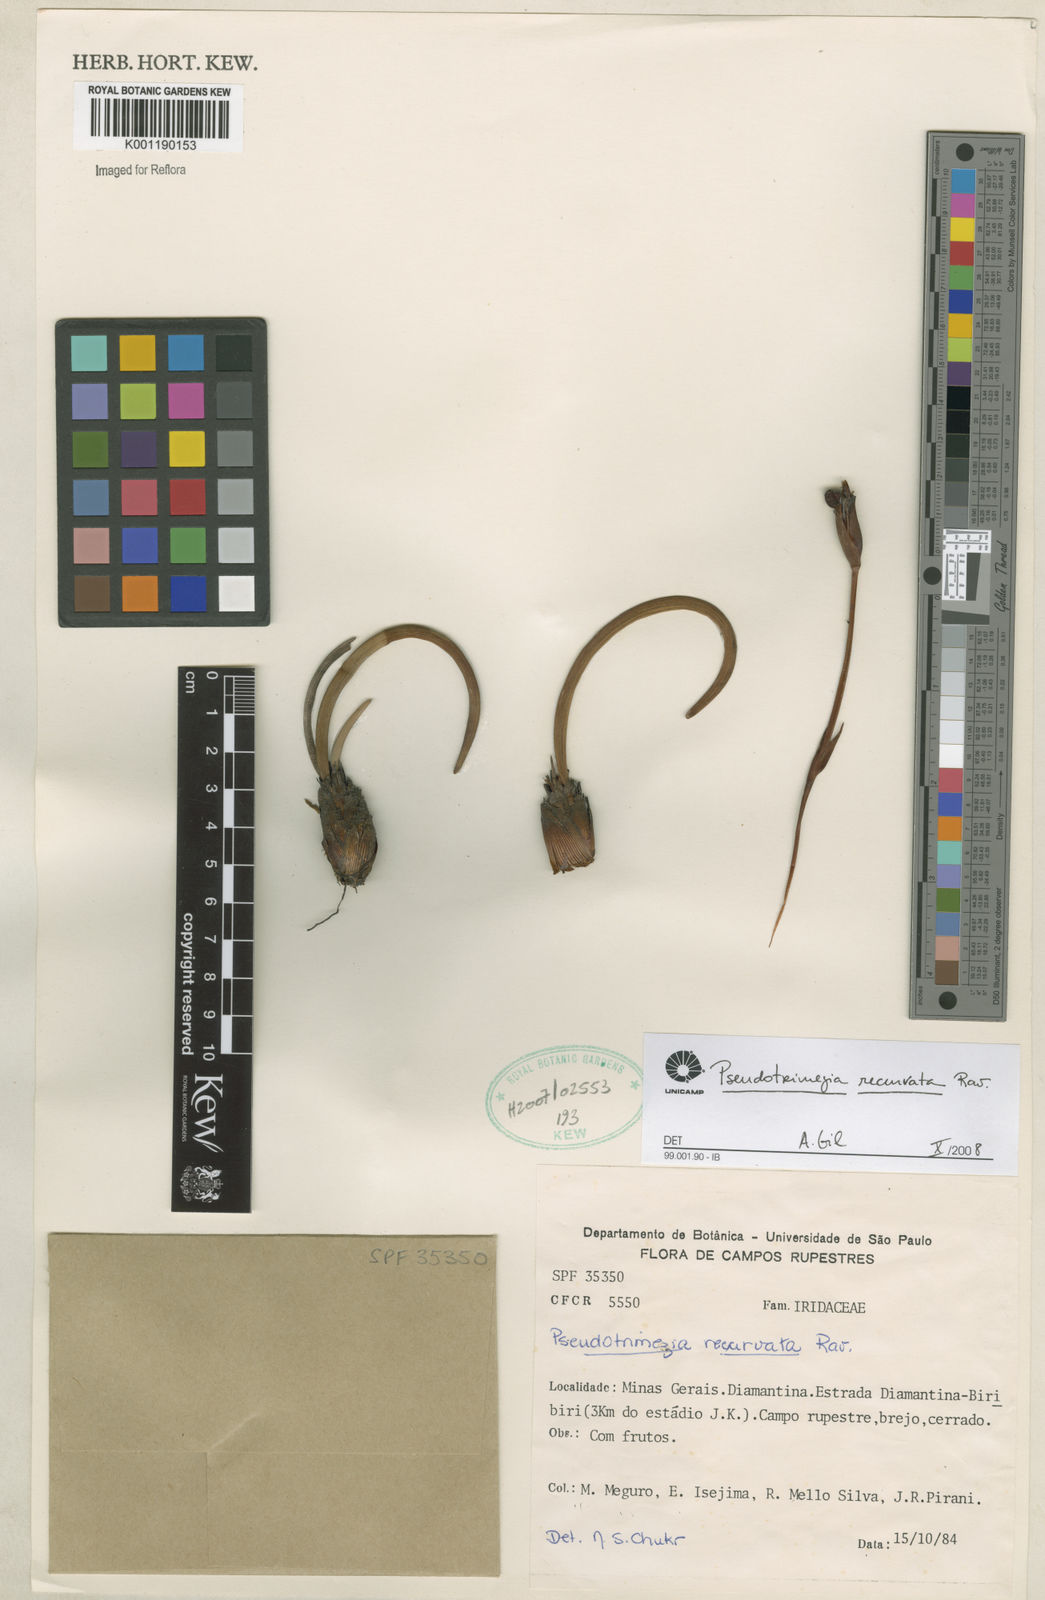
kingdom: Plantae
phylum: Tracheophyta
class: Liliopsida
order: Asparagales
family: Iridaceae
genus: Trimezia
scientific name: Trimezia recurvata
